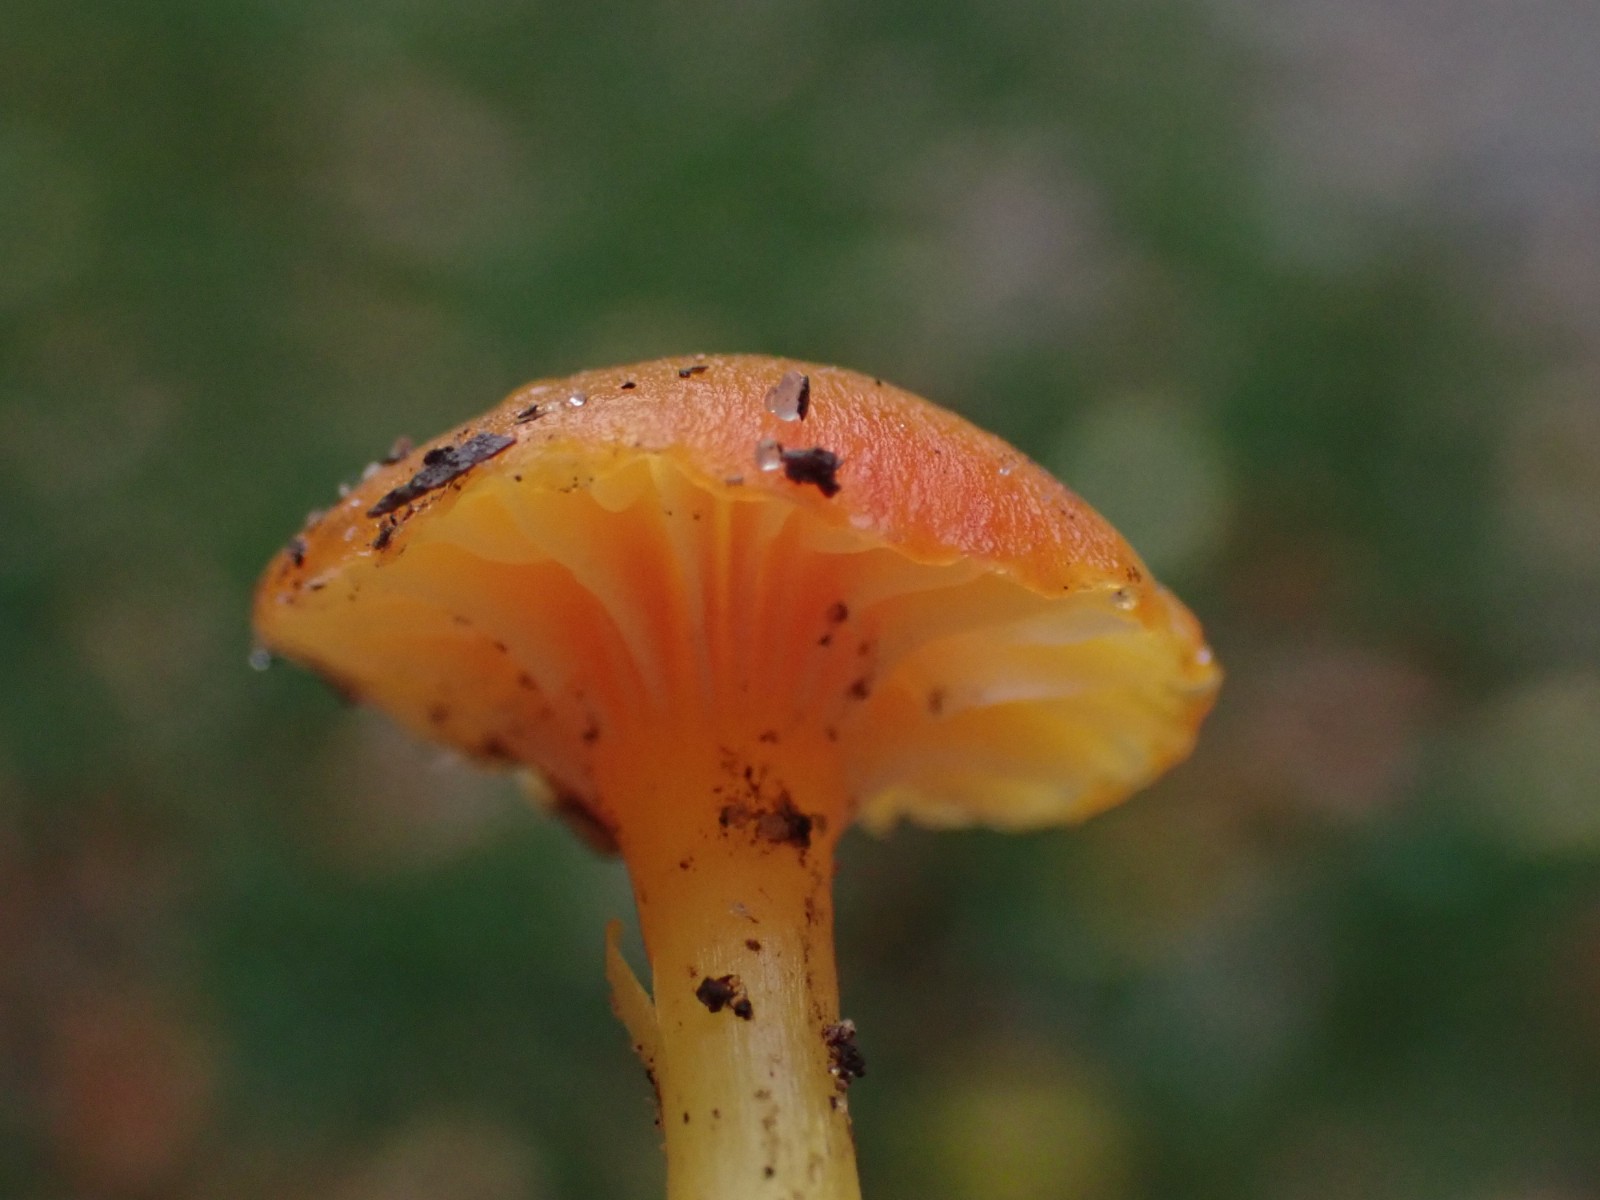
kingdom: Fungi
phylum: Basidiomycota
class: Agaricomycetes
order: Agaricales
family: Hygrophoraceae
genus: Hygrocybe
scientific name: Hygrocybe insipida
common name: liden vokshat
